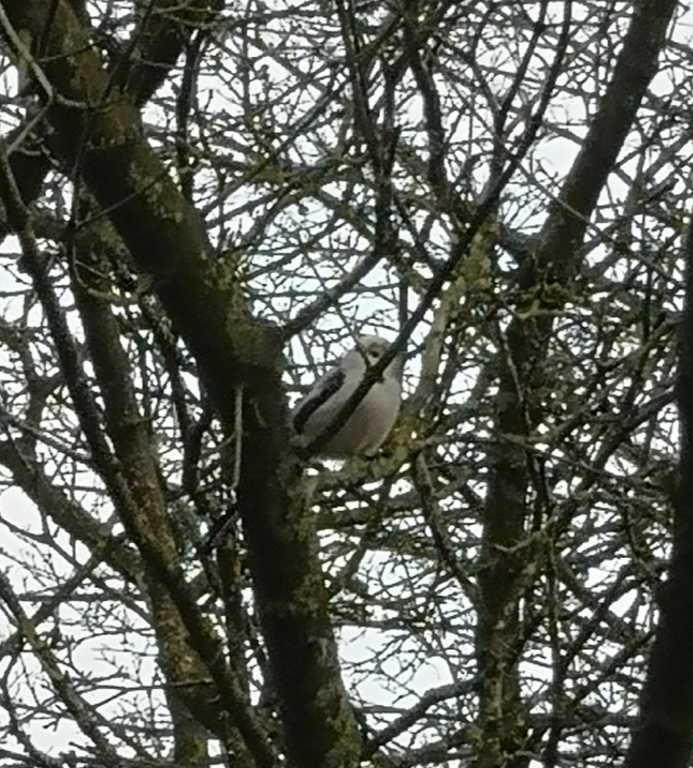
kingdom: Animalia
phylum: Chordata
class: Aves
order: Passeriformes
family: Aegithalidae
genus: Aegithalos
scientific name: Aegithalos caudatus
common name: Halemejse
